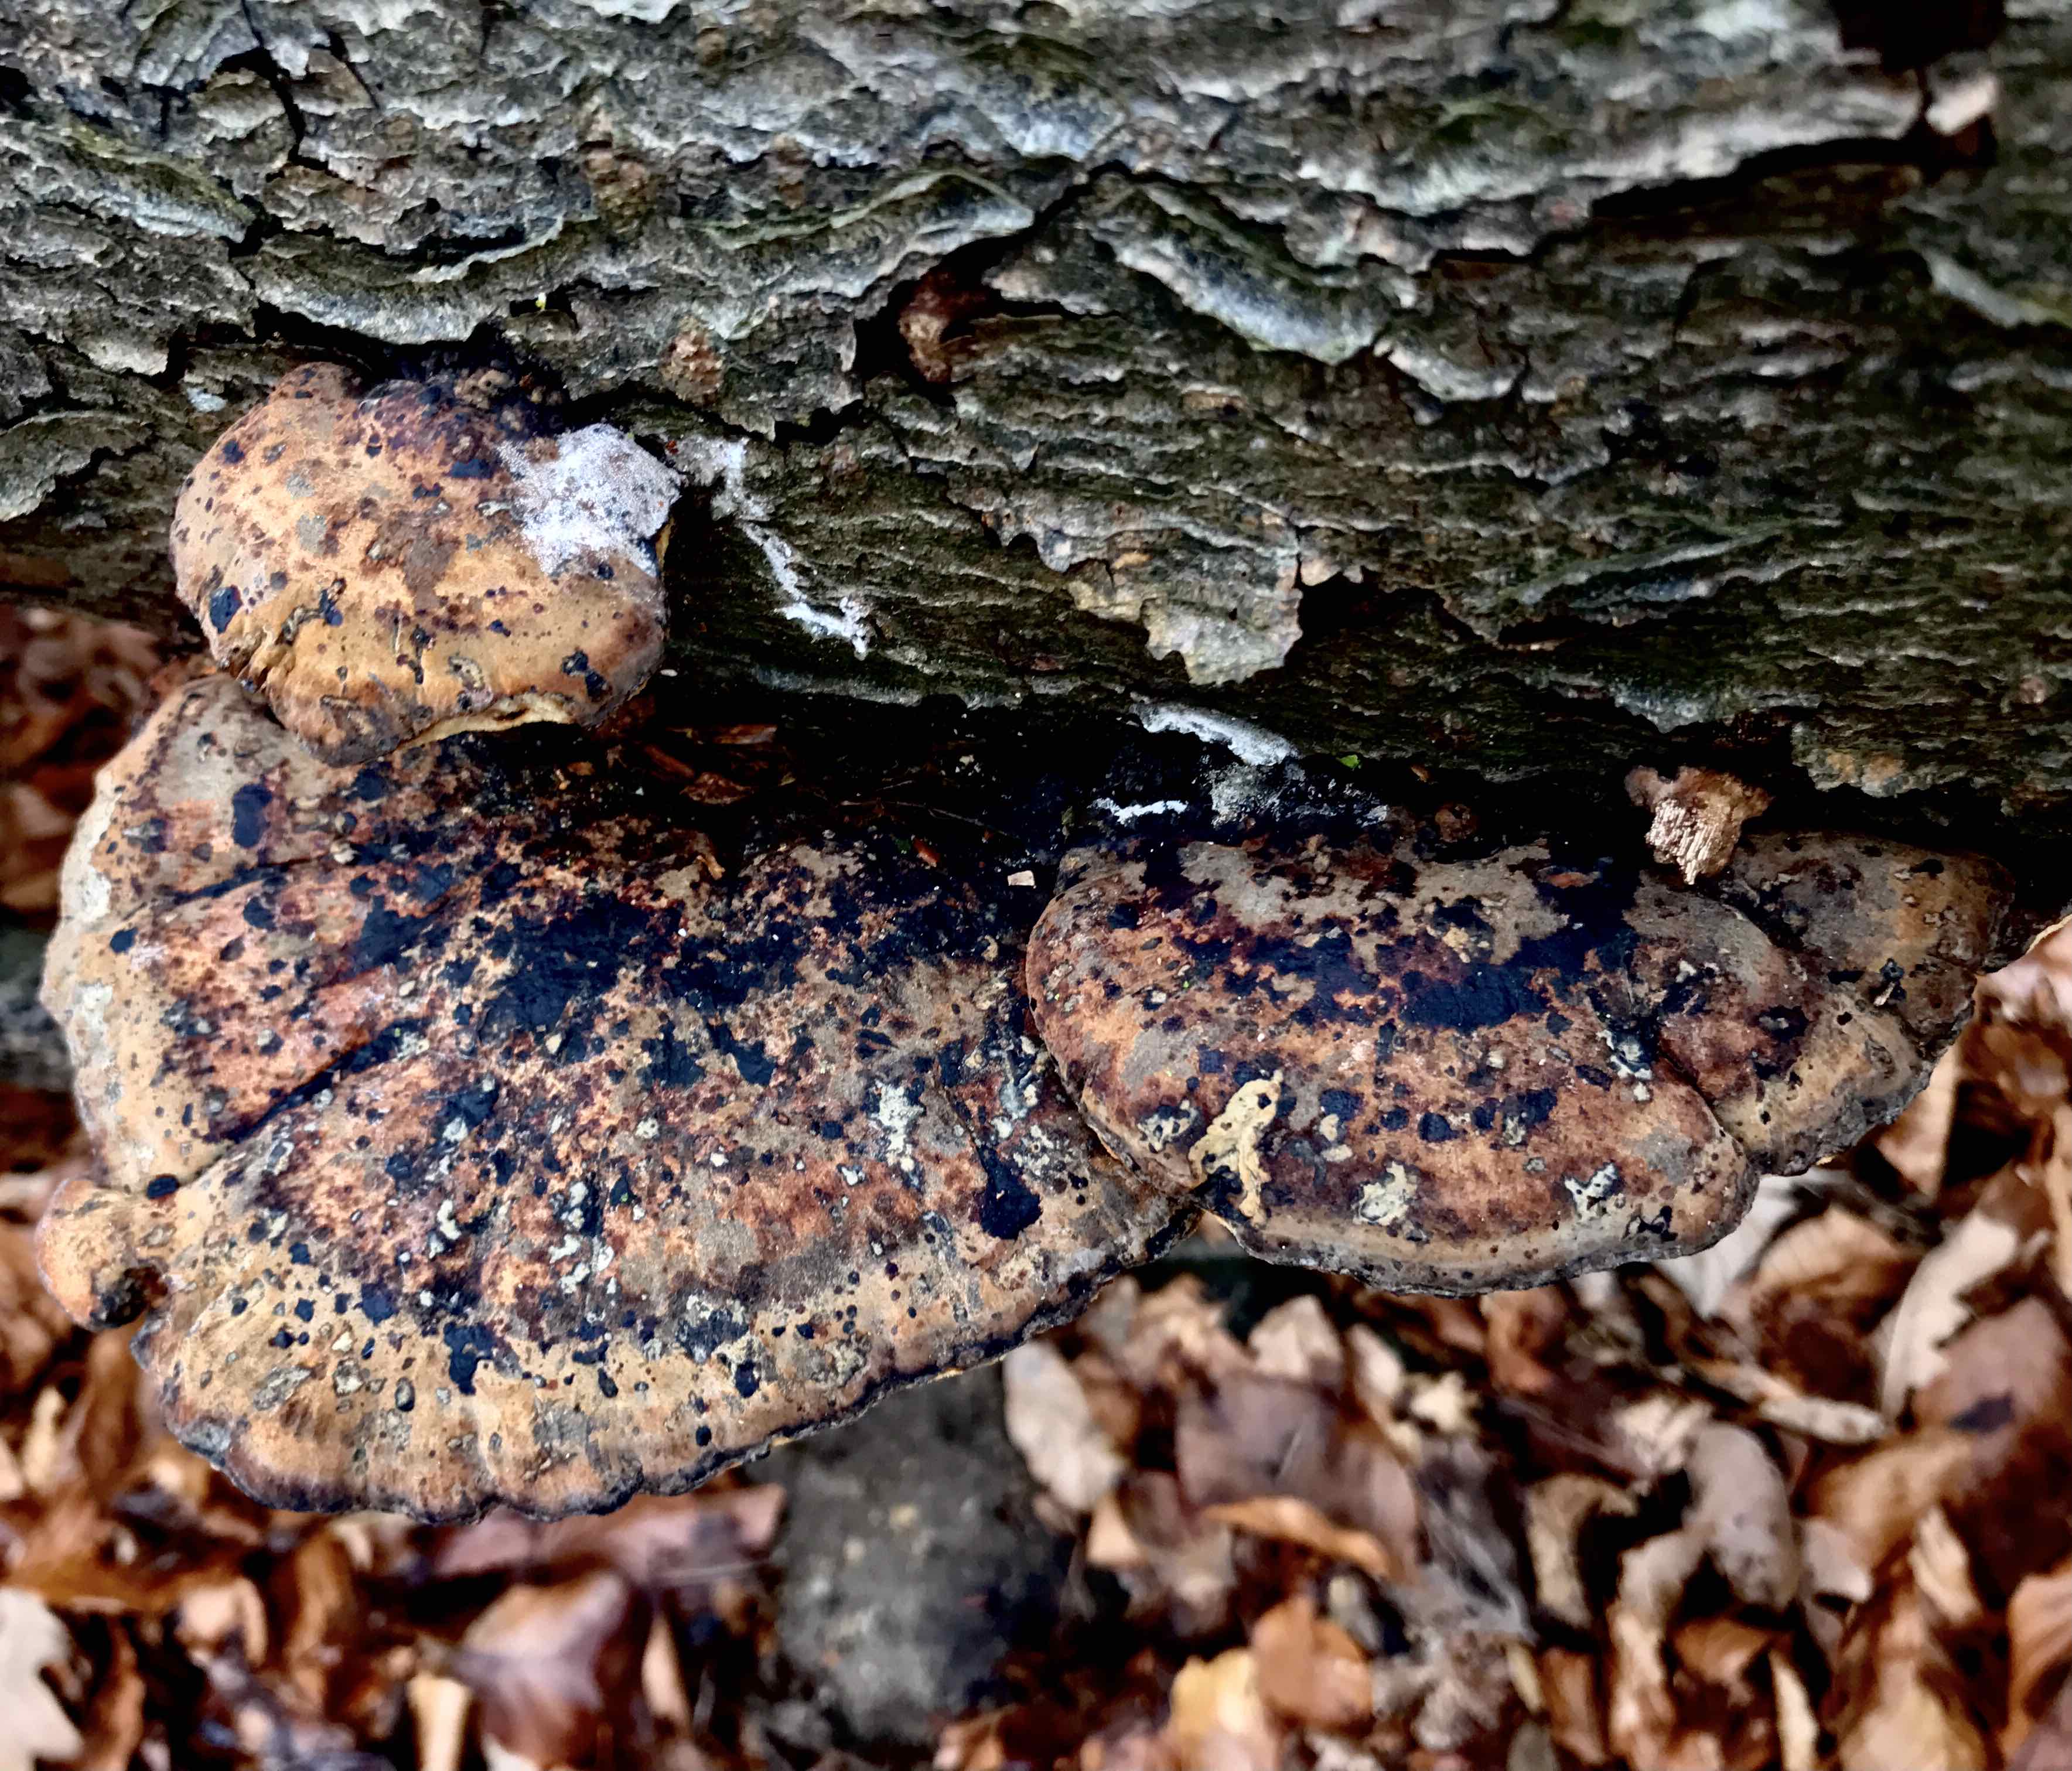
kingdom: Fungi
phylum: Basidiomycota
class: Agaricomycetes
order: Polyporales
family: Ischnodermataceae
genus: Ischnoderma
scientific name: Ischnoderma resinosum
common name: løv-tjæreporesvamp
